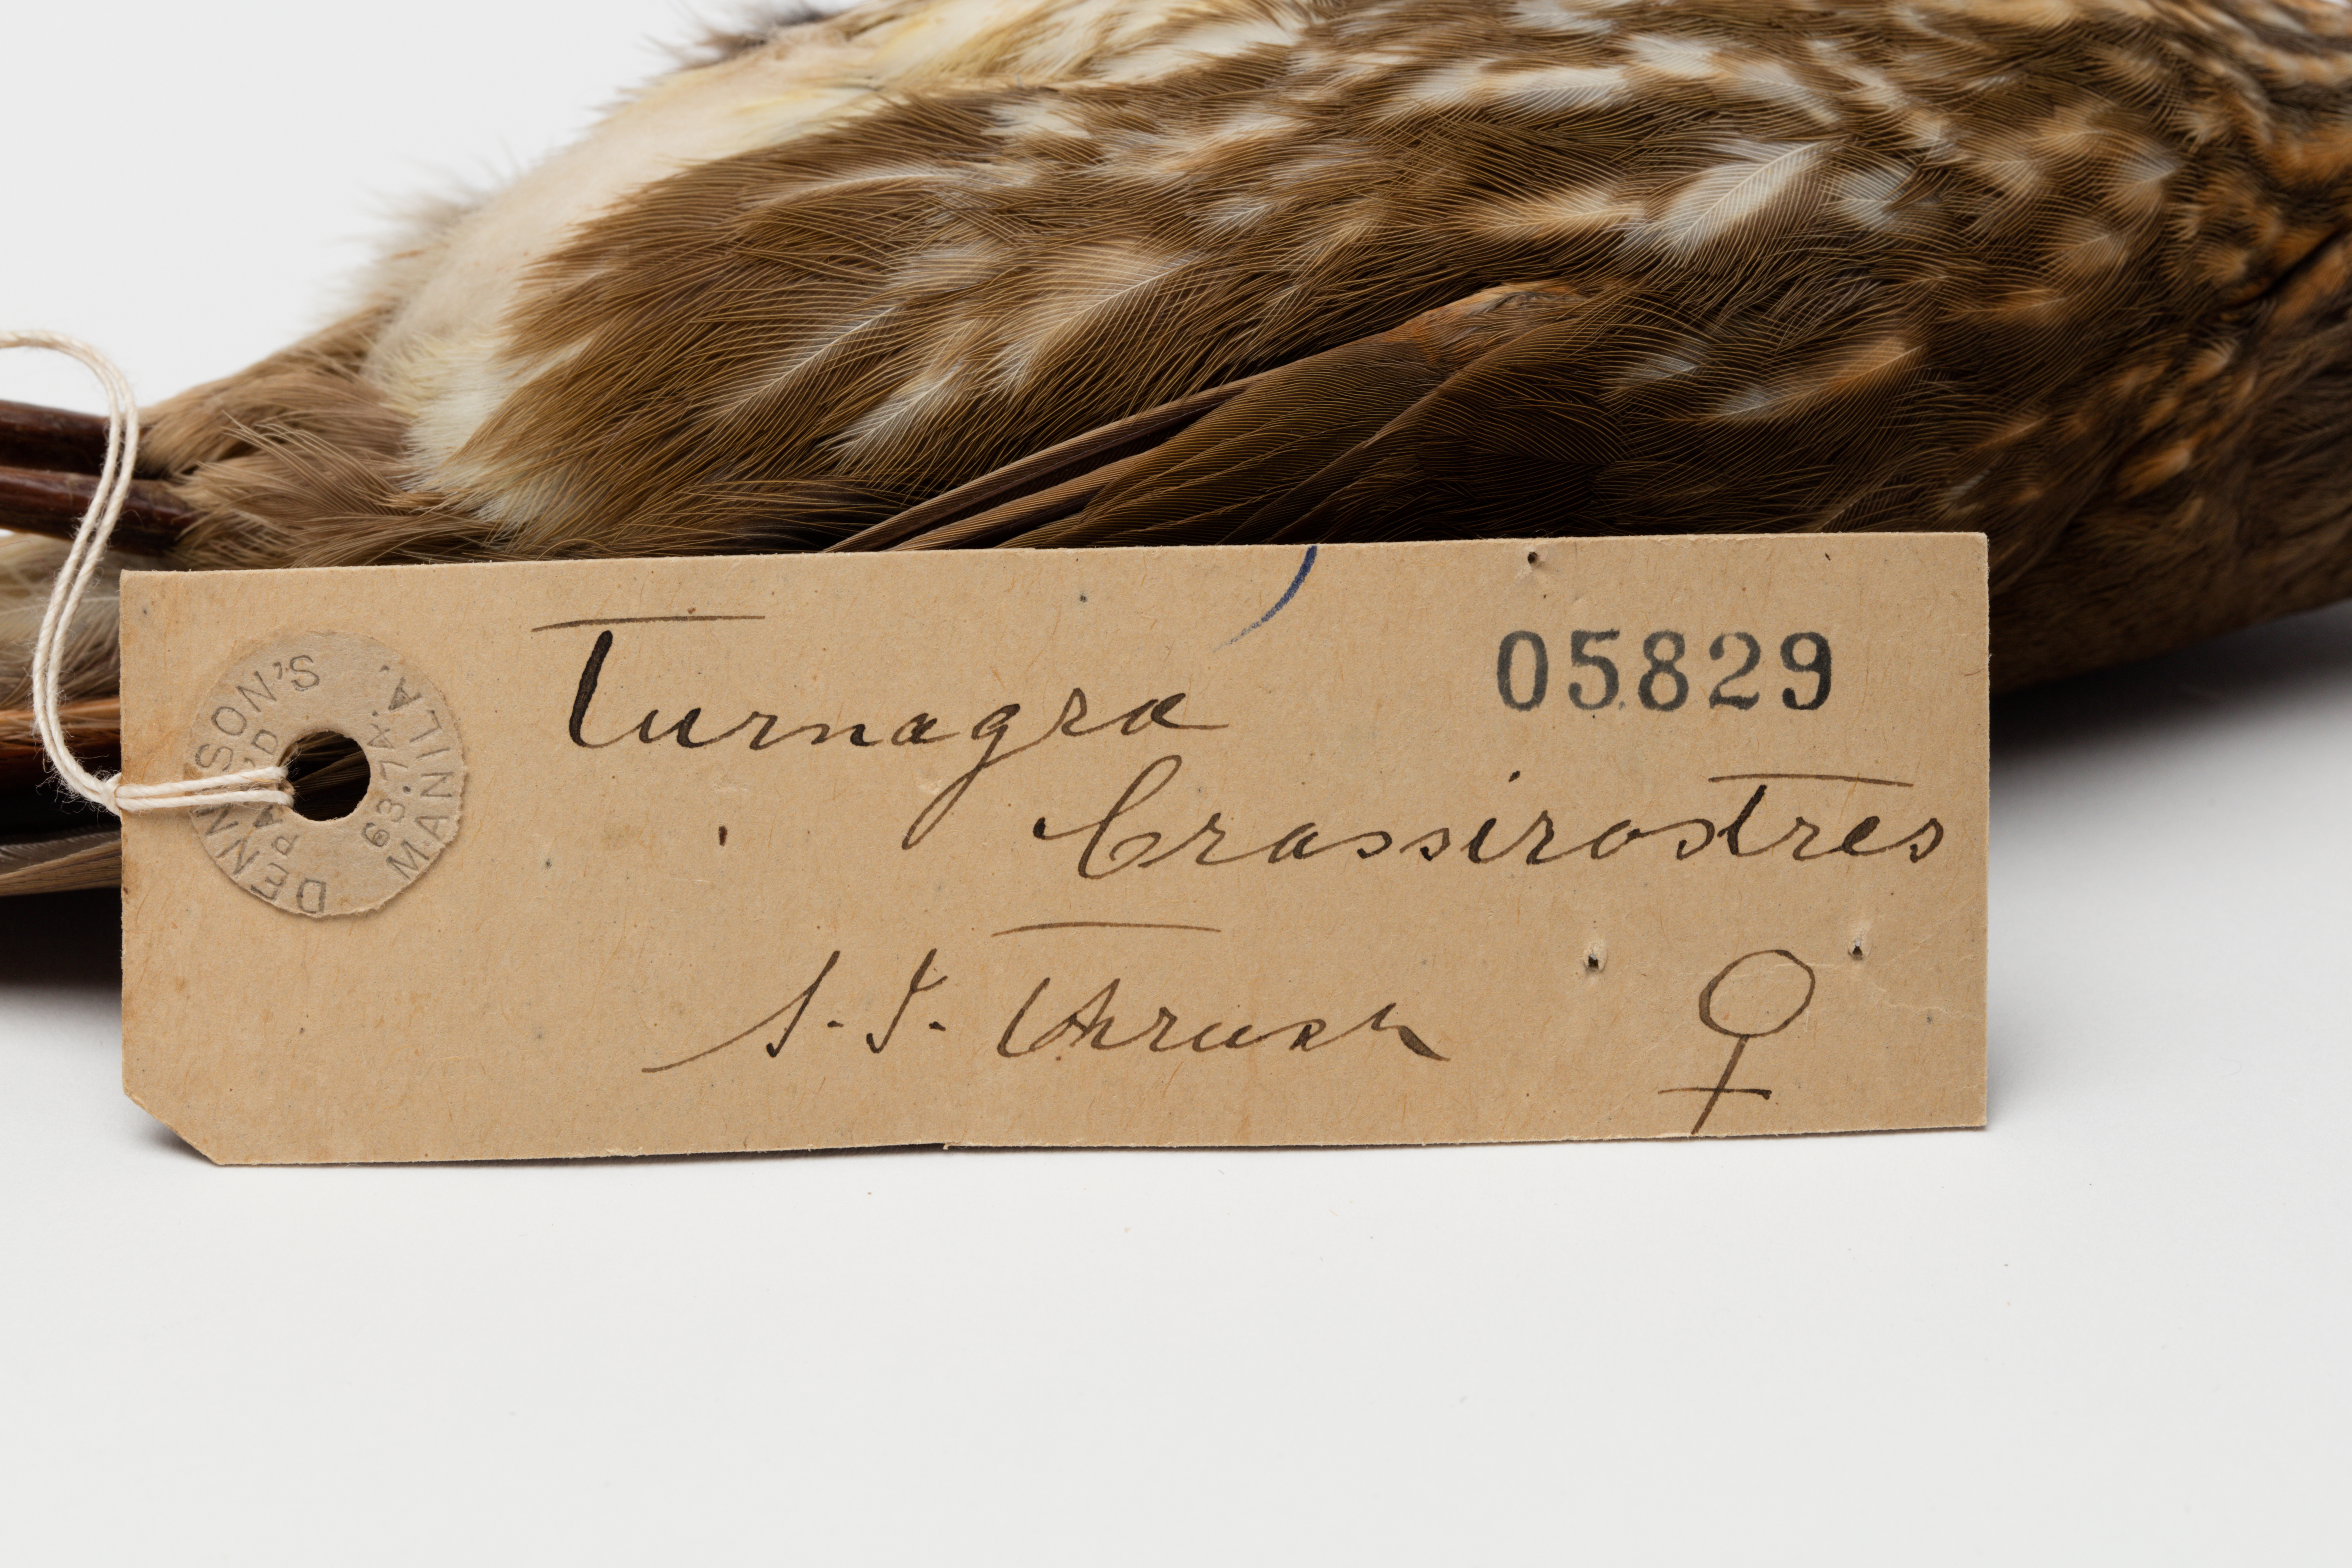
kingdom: Animalia
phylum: Chordata
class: Aves
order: Passeriformes
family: Ptilonorhynchidae
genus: Turnagra
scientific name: Turnagra capensis
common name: South island piopio
